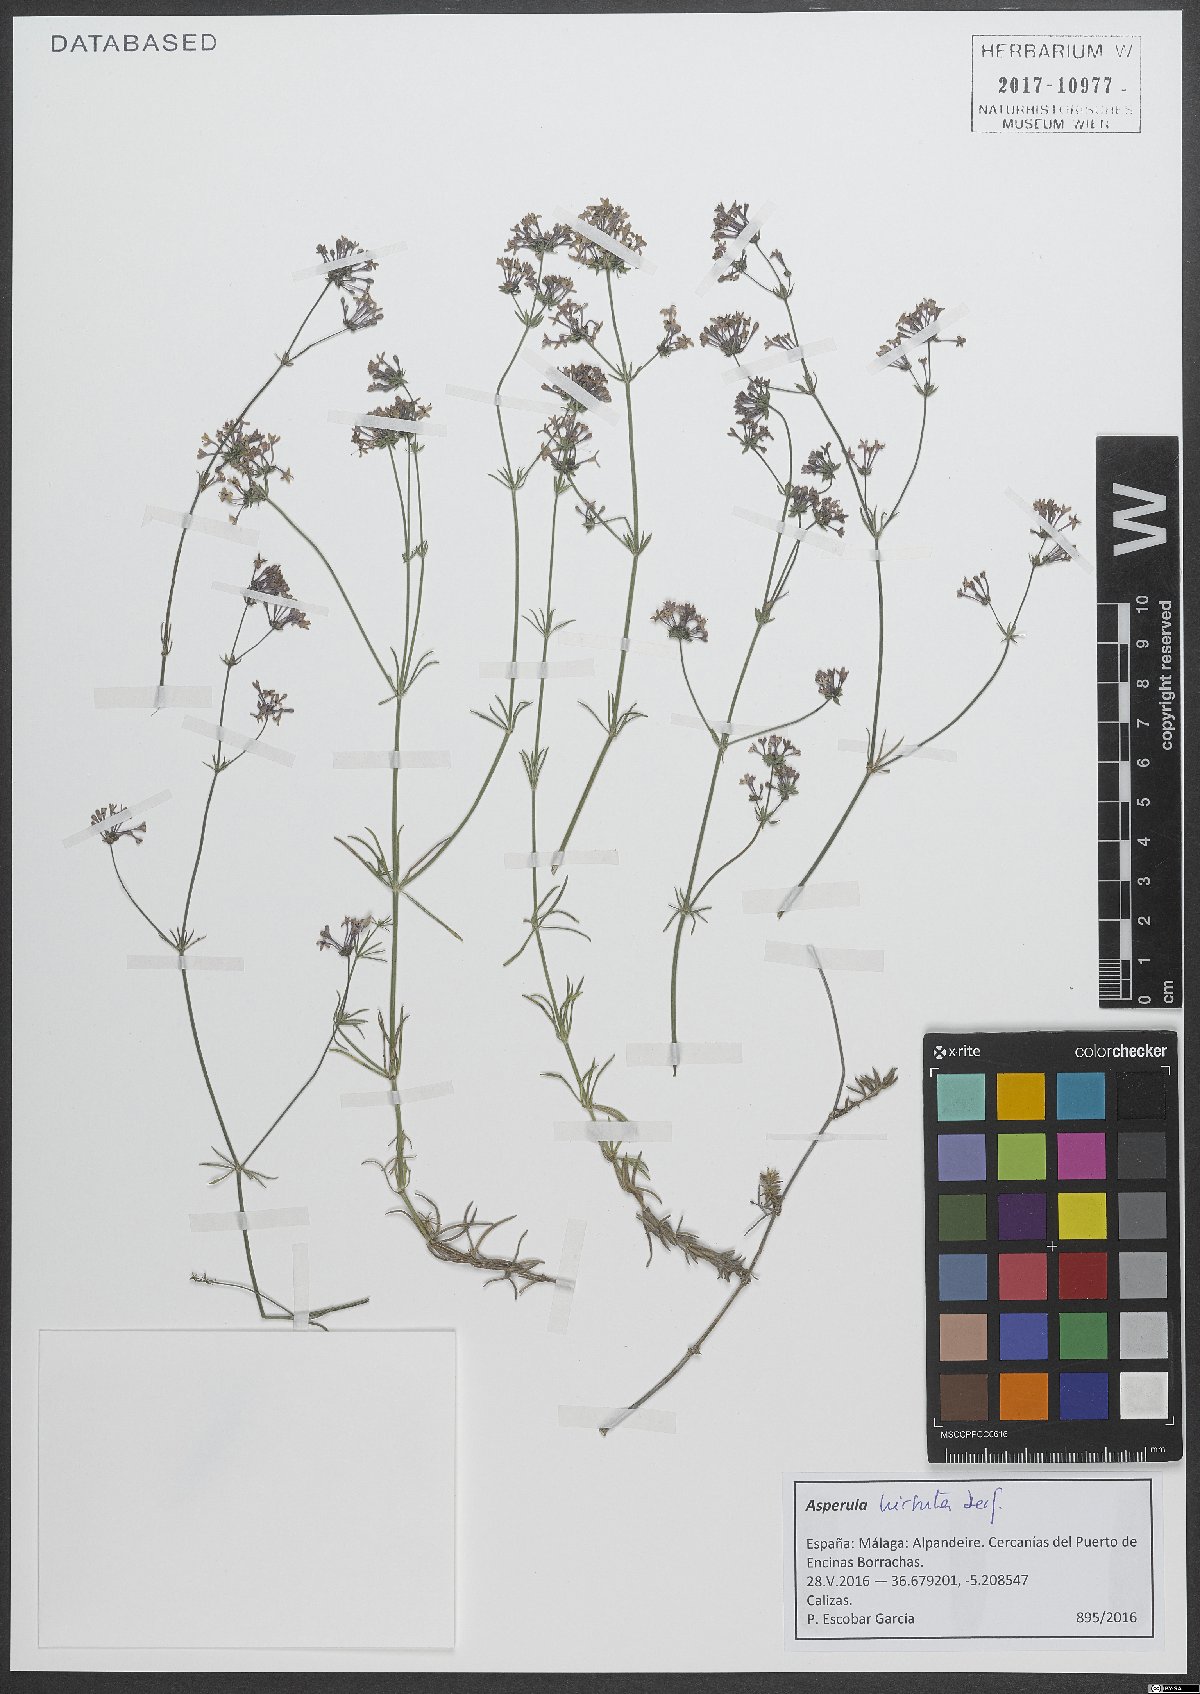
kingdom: Plantae
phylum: Tracheophyta
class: Magnoliopsida
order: Gentianales
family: Rubiaceae
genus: Hexaphylla
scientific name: Hexaphylla hirsuta
